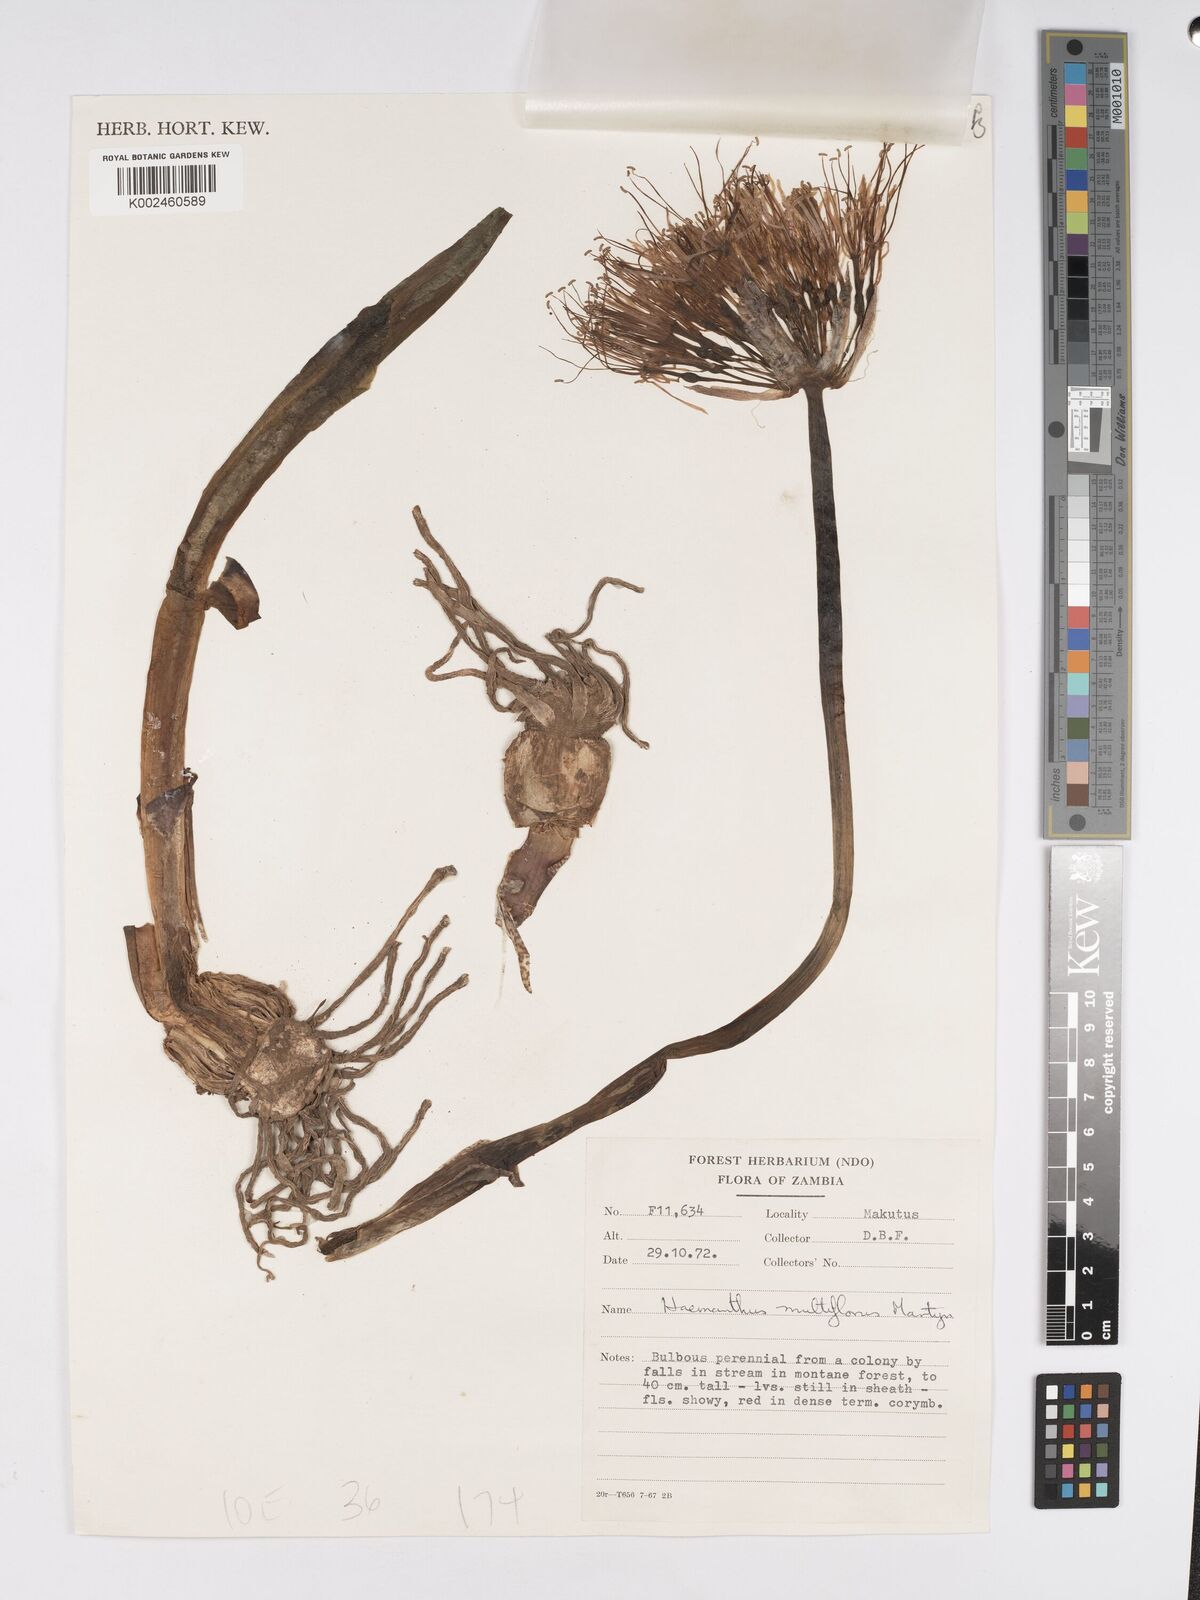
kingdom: Plantae
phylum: Tracheophyta
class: Liliopsida
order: Asparagales
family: Amaryllidaceae
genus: Scadoxus
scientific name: Scadoxus multiflorus
